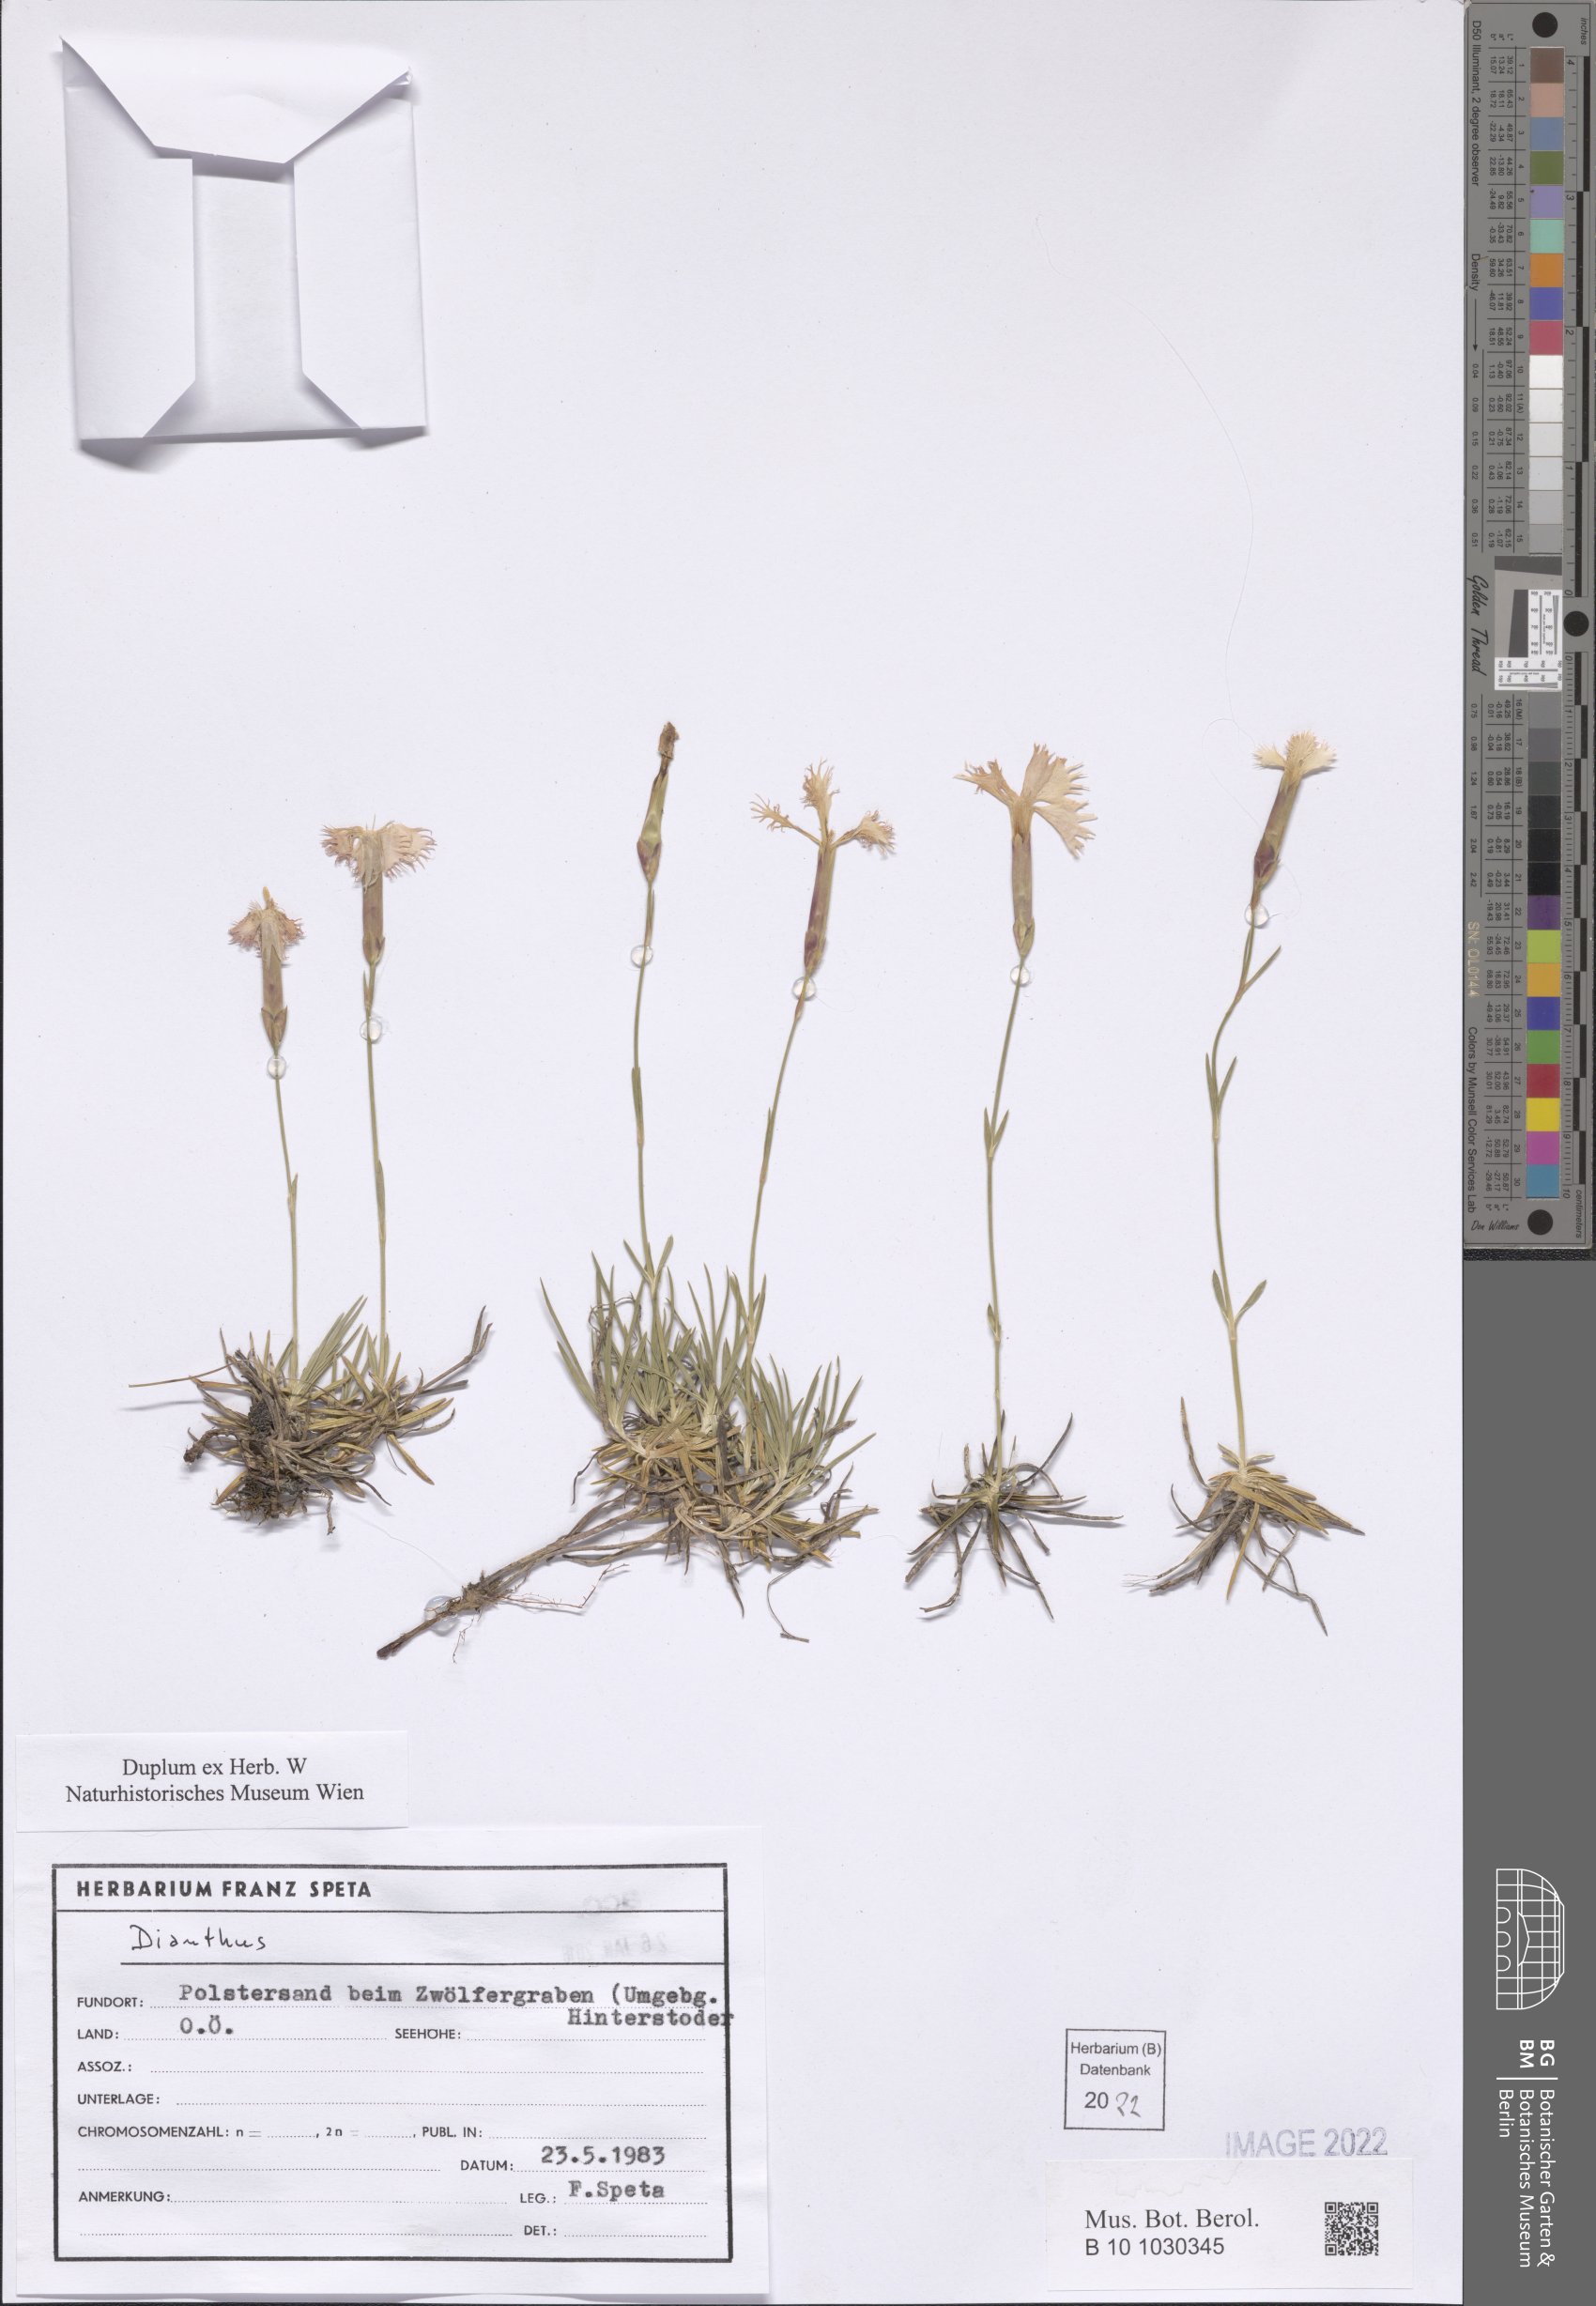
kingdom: Plantae
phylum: Tracheophyta
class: Magnoliopsida
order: Caryophyllales
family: Caryophyllaceae
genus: Dianthus
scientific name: Dianthus
